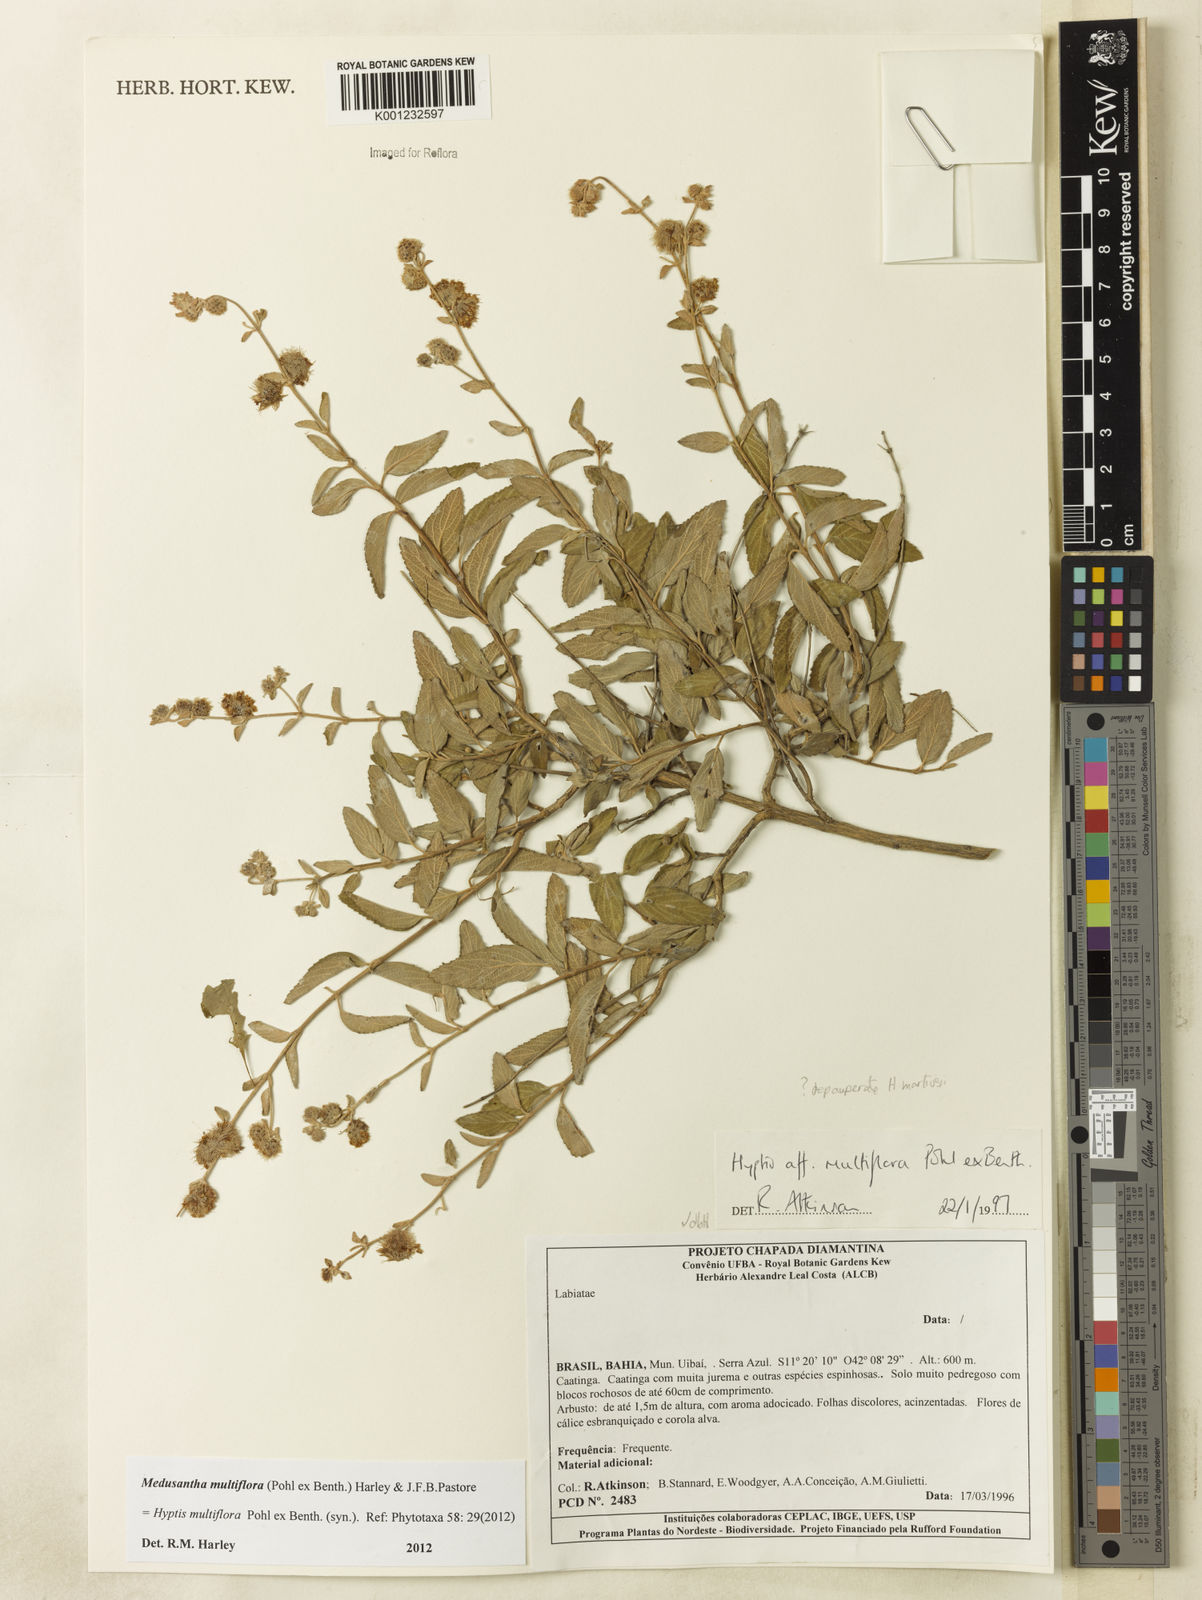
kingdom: Plantae
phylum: Tracheophyta
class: Magnoliopsida
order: Lamiales
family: Lamiaceae
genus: Medusantha
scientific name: Medusantha multiflora
